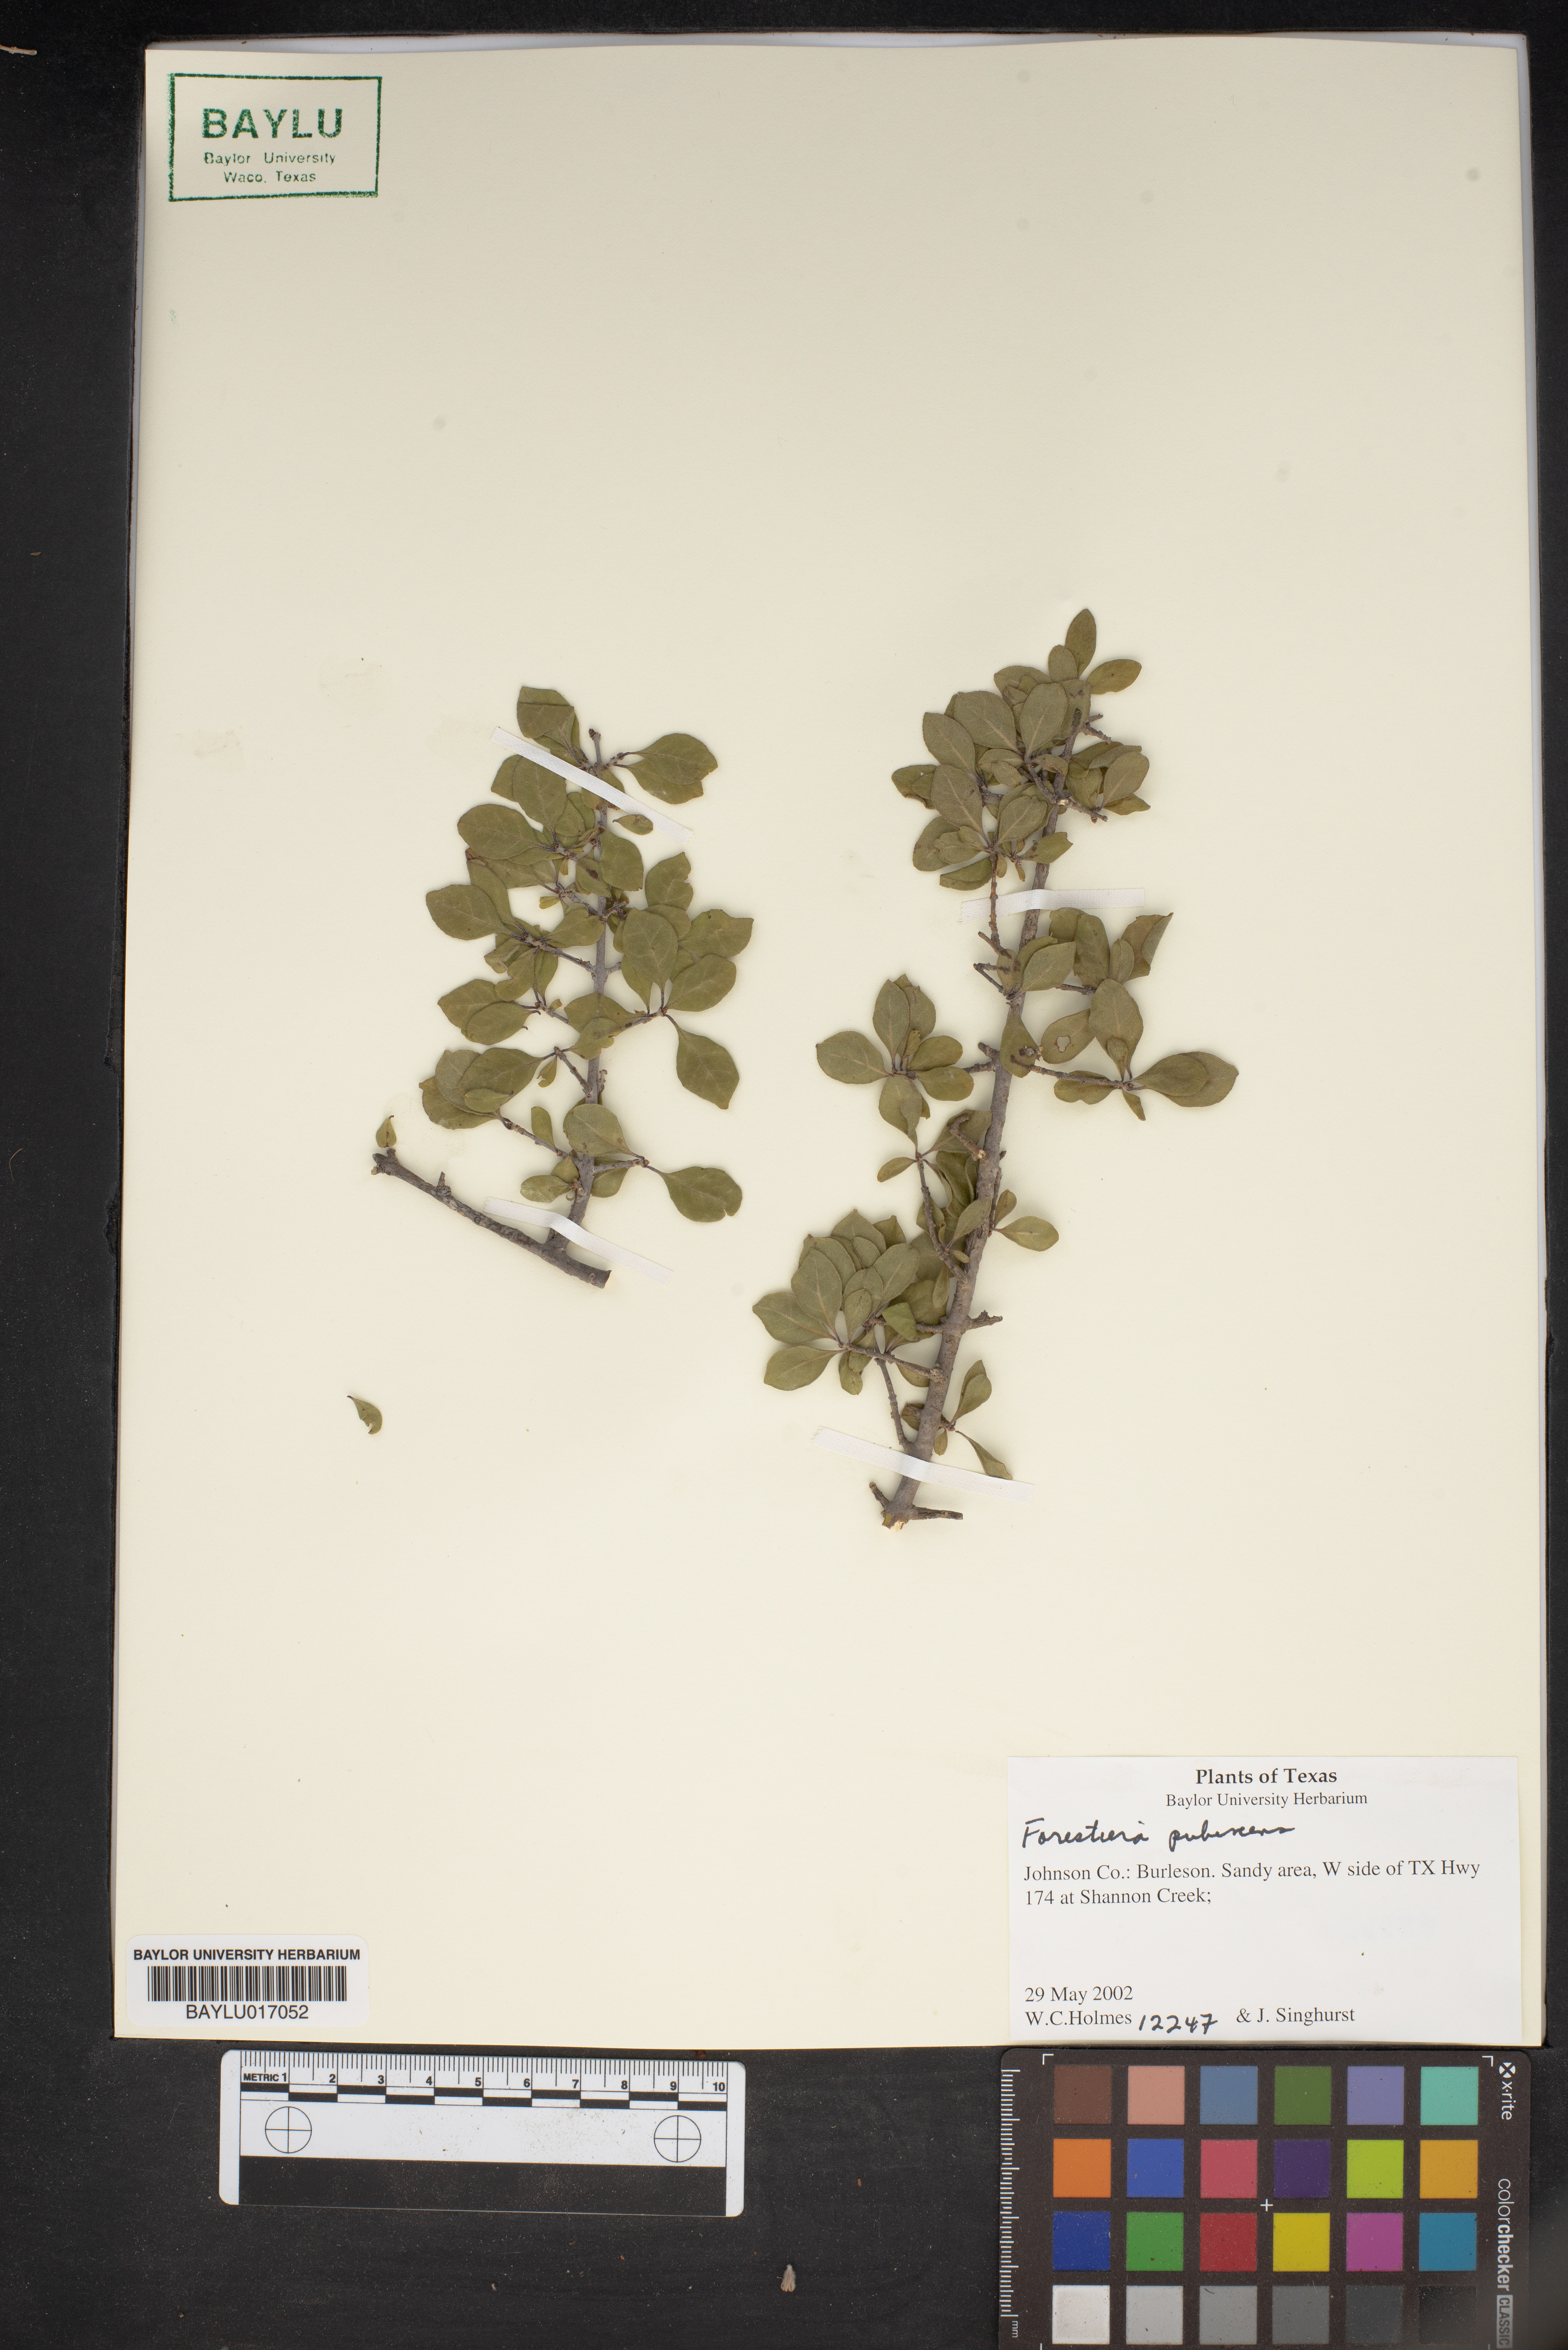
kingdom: Plantae
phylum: Tracheophyta
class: Magnoliopsida
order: Lamiales
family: Oleaceae
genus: Forestiera
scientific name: Forestiera pubescens
